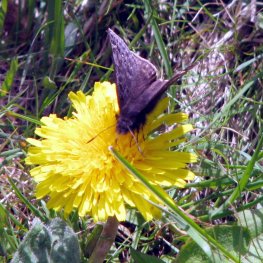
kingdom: Animalia
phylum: Arthropoda
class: Insecta
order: Lepidoptera
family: Hesperiidae
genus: Gesta
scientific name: Gesta
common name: Juvenal's Duskywing
